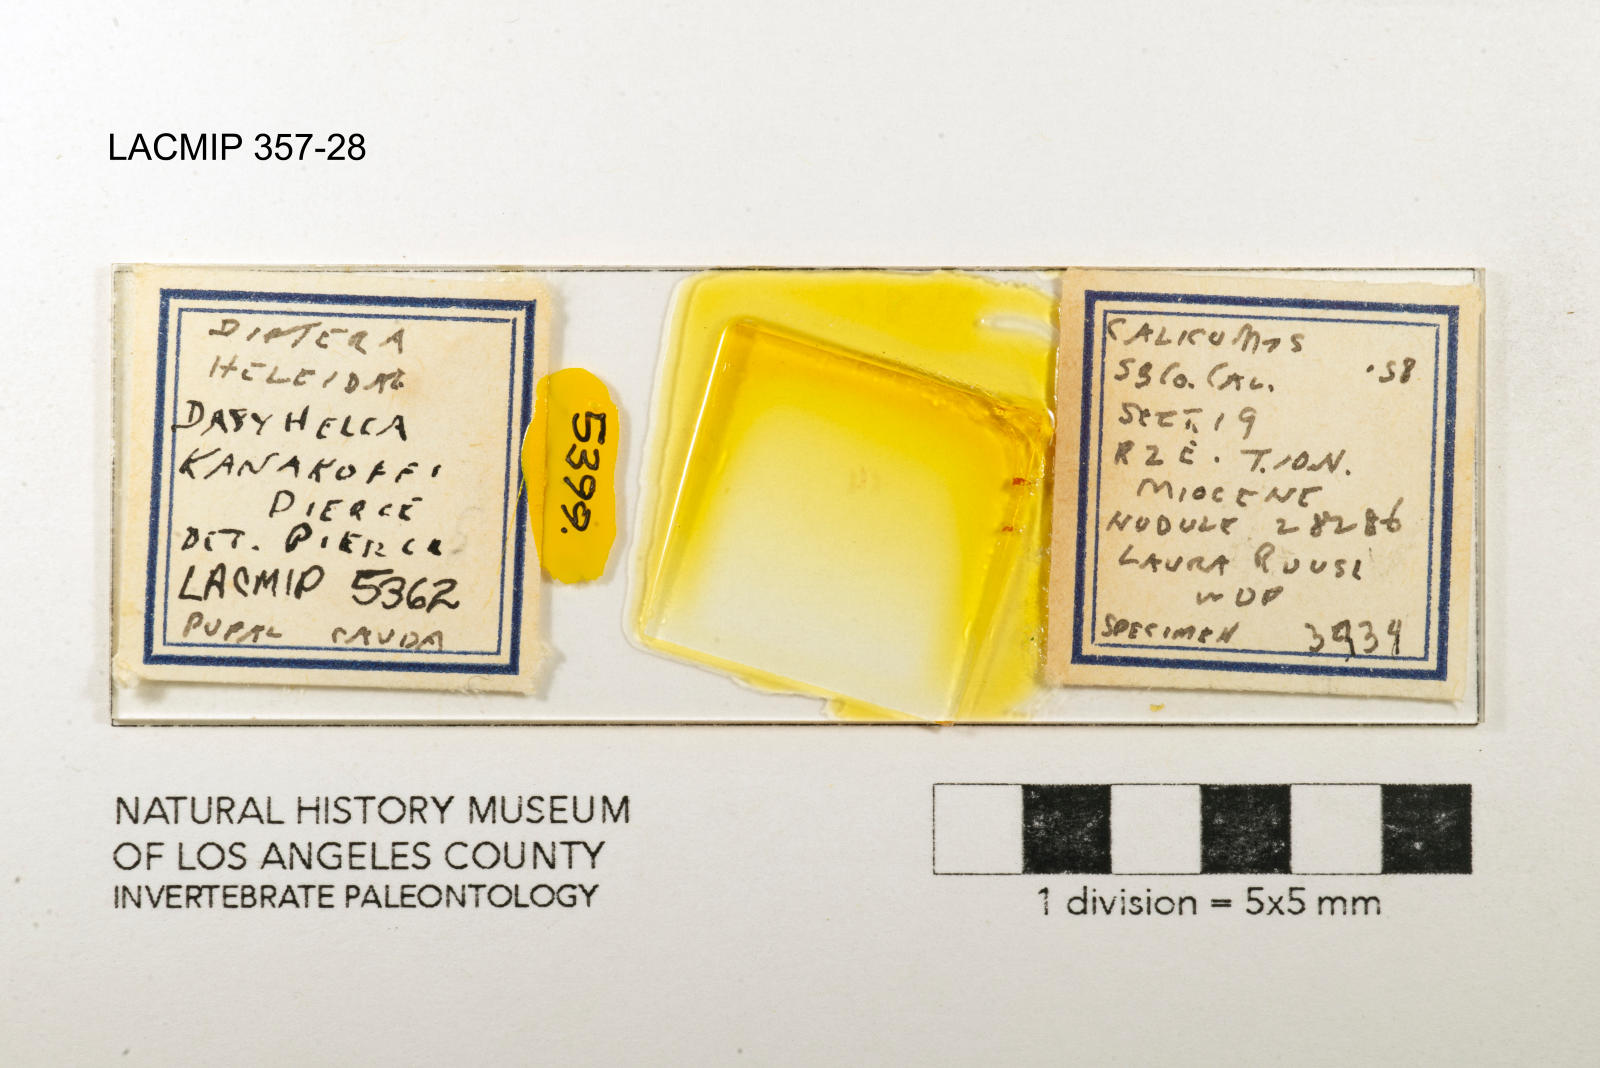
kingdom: Animalia
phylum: Arthropoda
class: Insecta
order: Diptera
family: Ceratopogonidae
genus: Dasyhelea
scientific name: Dasyhelea kanakoffi
